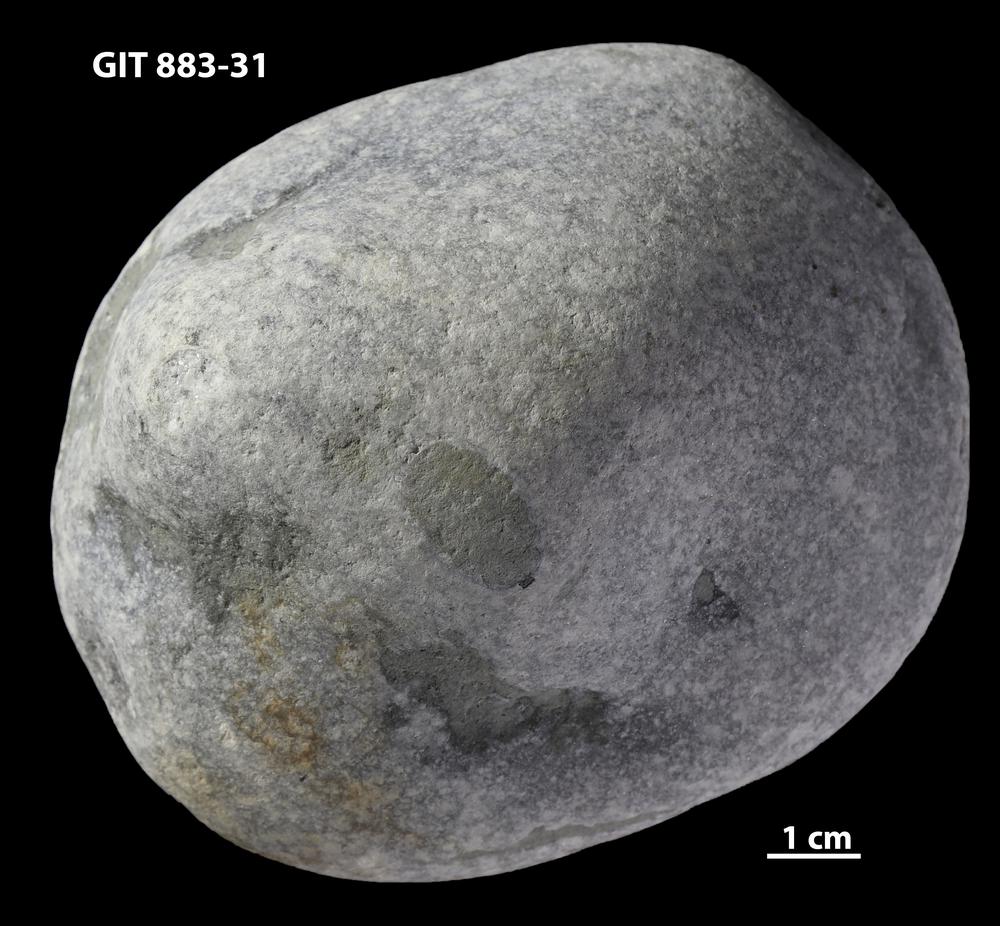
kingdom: Animalia
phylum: Porifera
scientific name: Porifera
